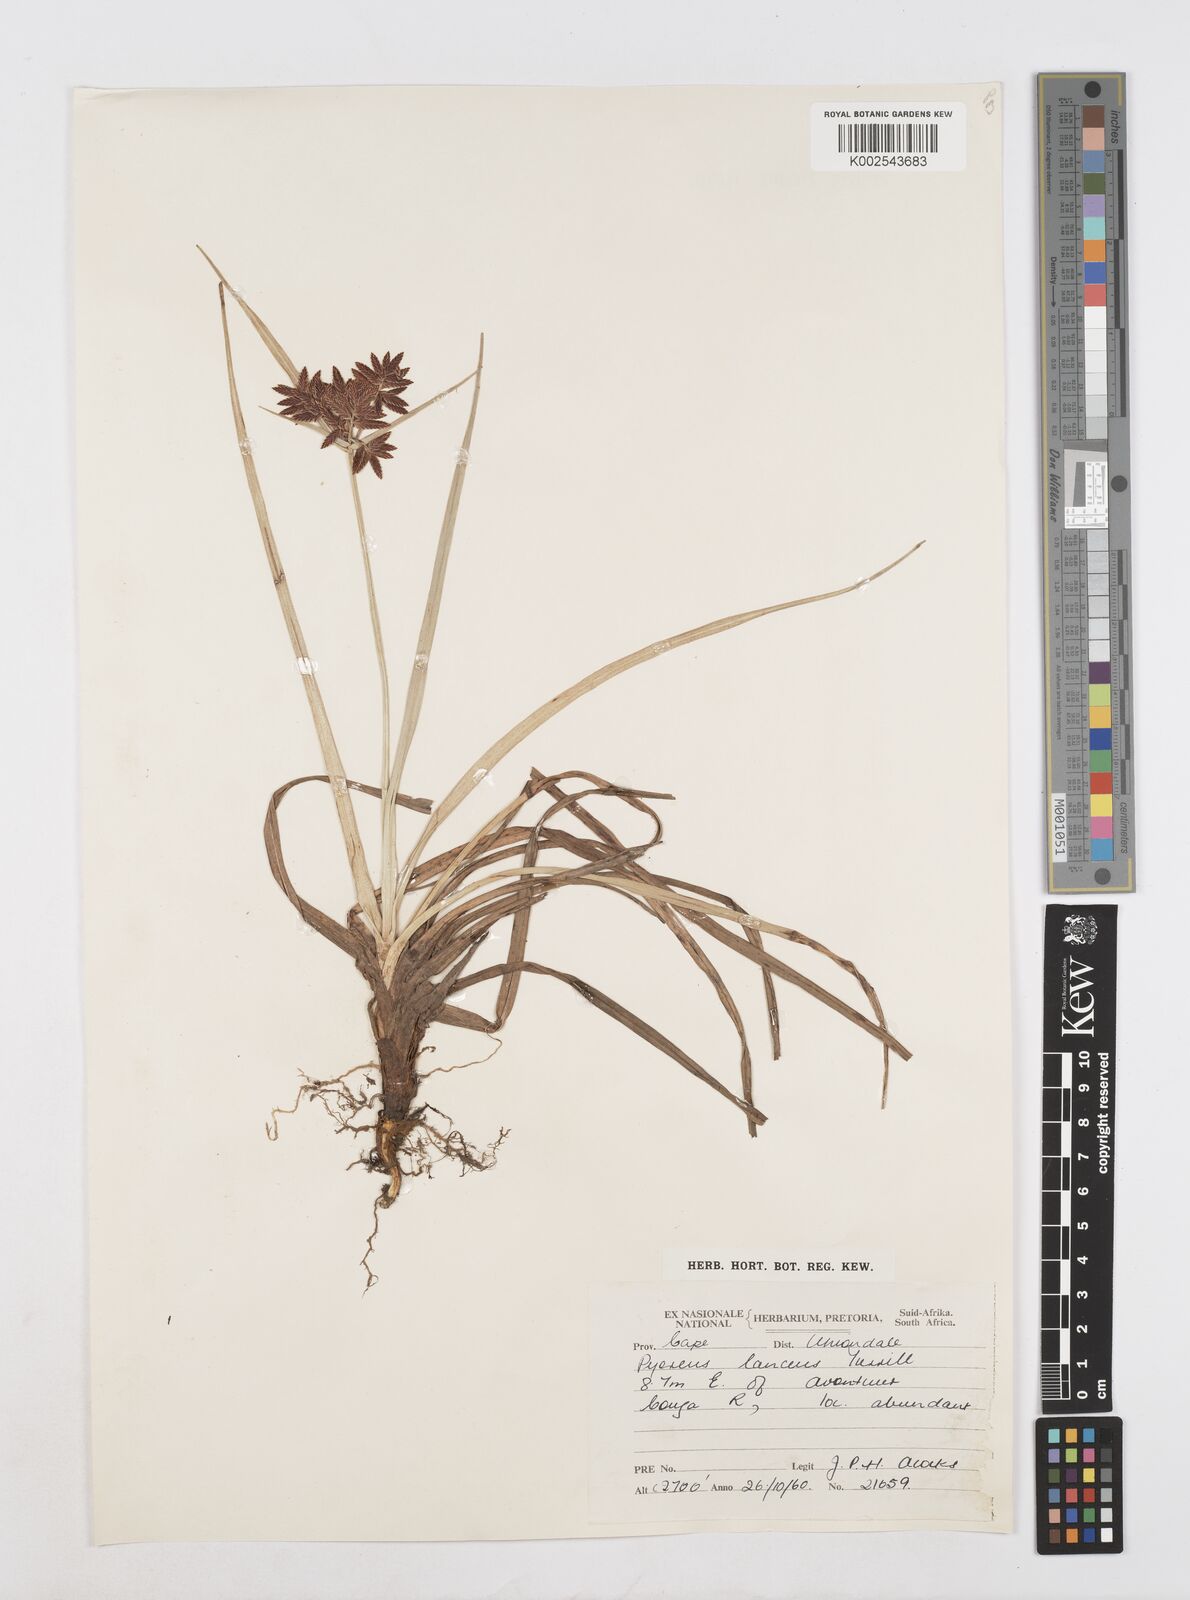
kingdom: Plantae
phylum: Tracheophyta
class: Liliopsida
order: Poales
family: Cyperaceae
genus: Cyperus
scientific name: Cyperus nitidus
